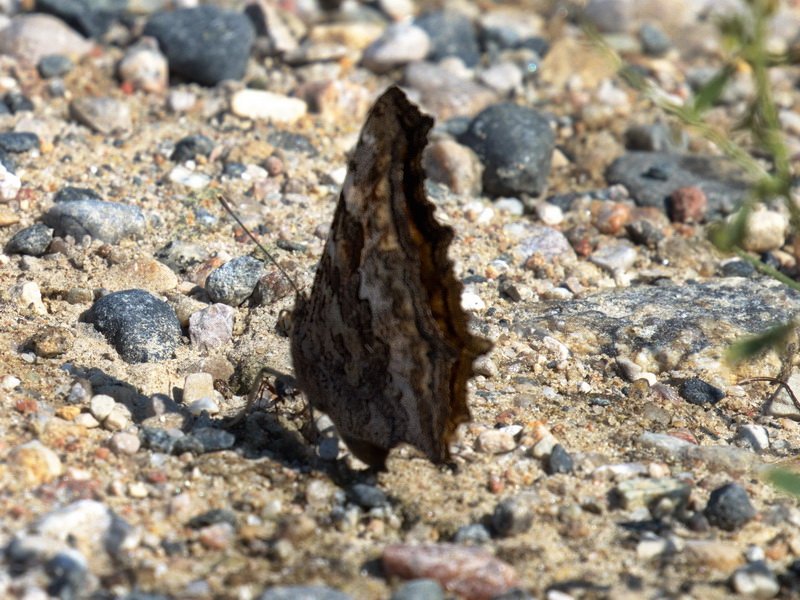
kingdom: Animalia
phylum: Arthropoda
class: Insecta
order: Lepidoptera
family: Nymphalidae
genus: Polygonia
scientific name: Polygonia vaualbum
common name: Compton Tortoiseshell
